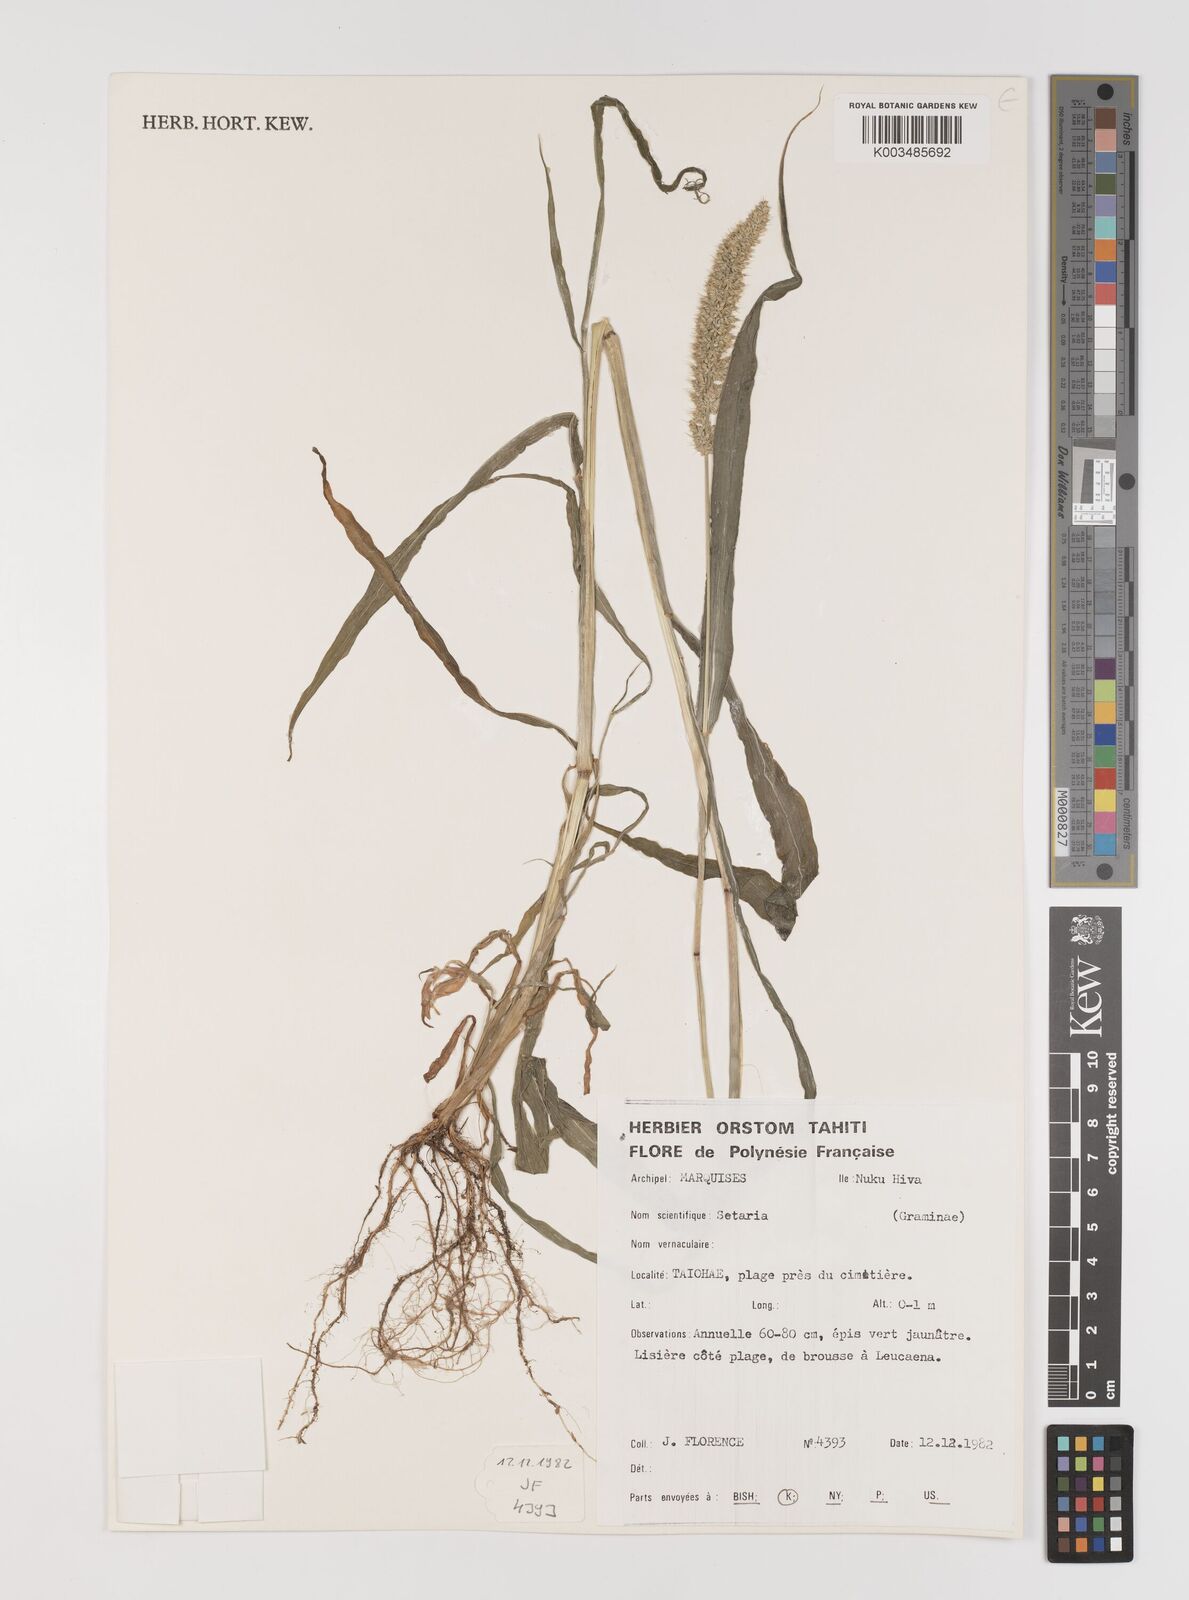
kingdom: Plantae
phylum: Tracheophyta
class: Liliopsida
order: Poales
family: Poaceae
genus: Setaria
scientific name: Setaria verticillata
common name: Hooked bristlegrass
